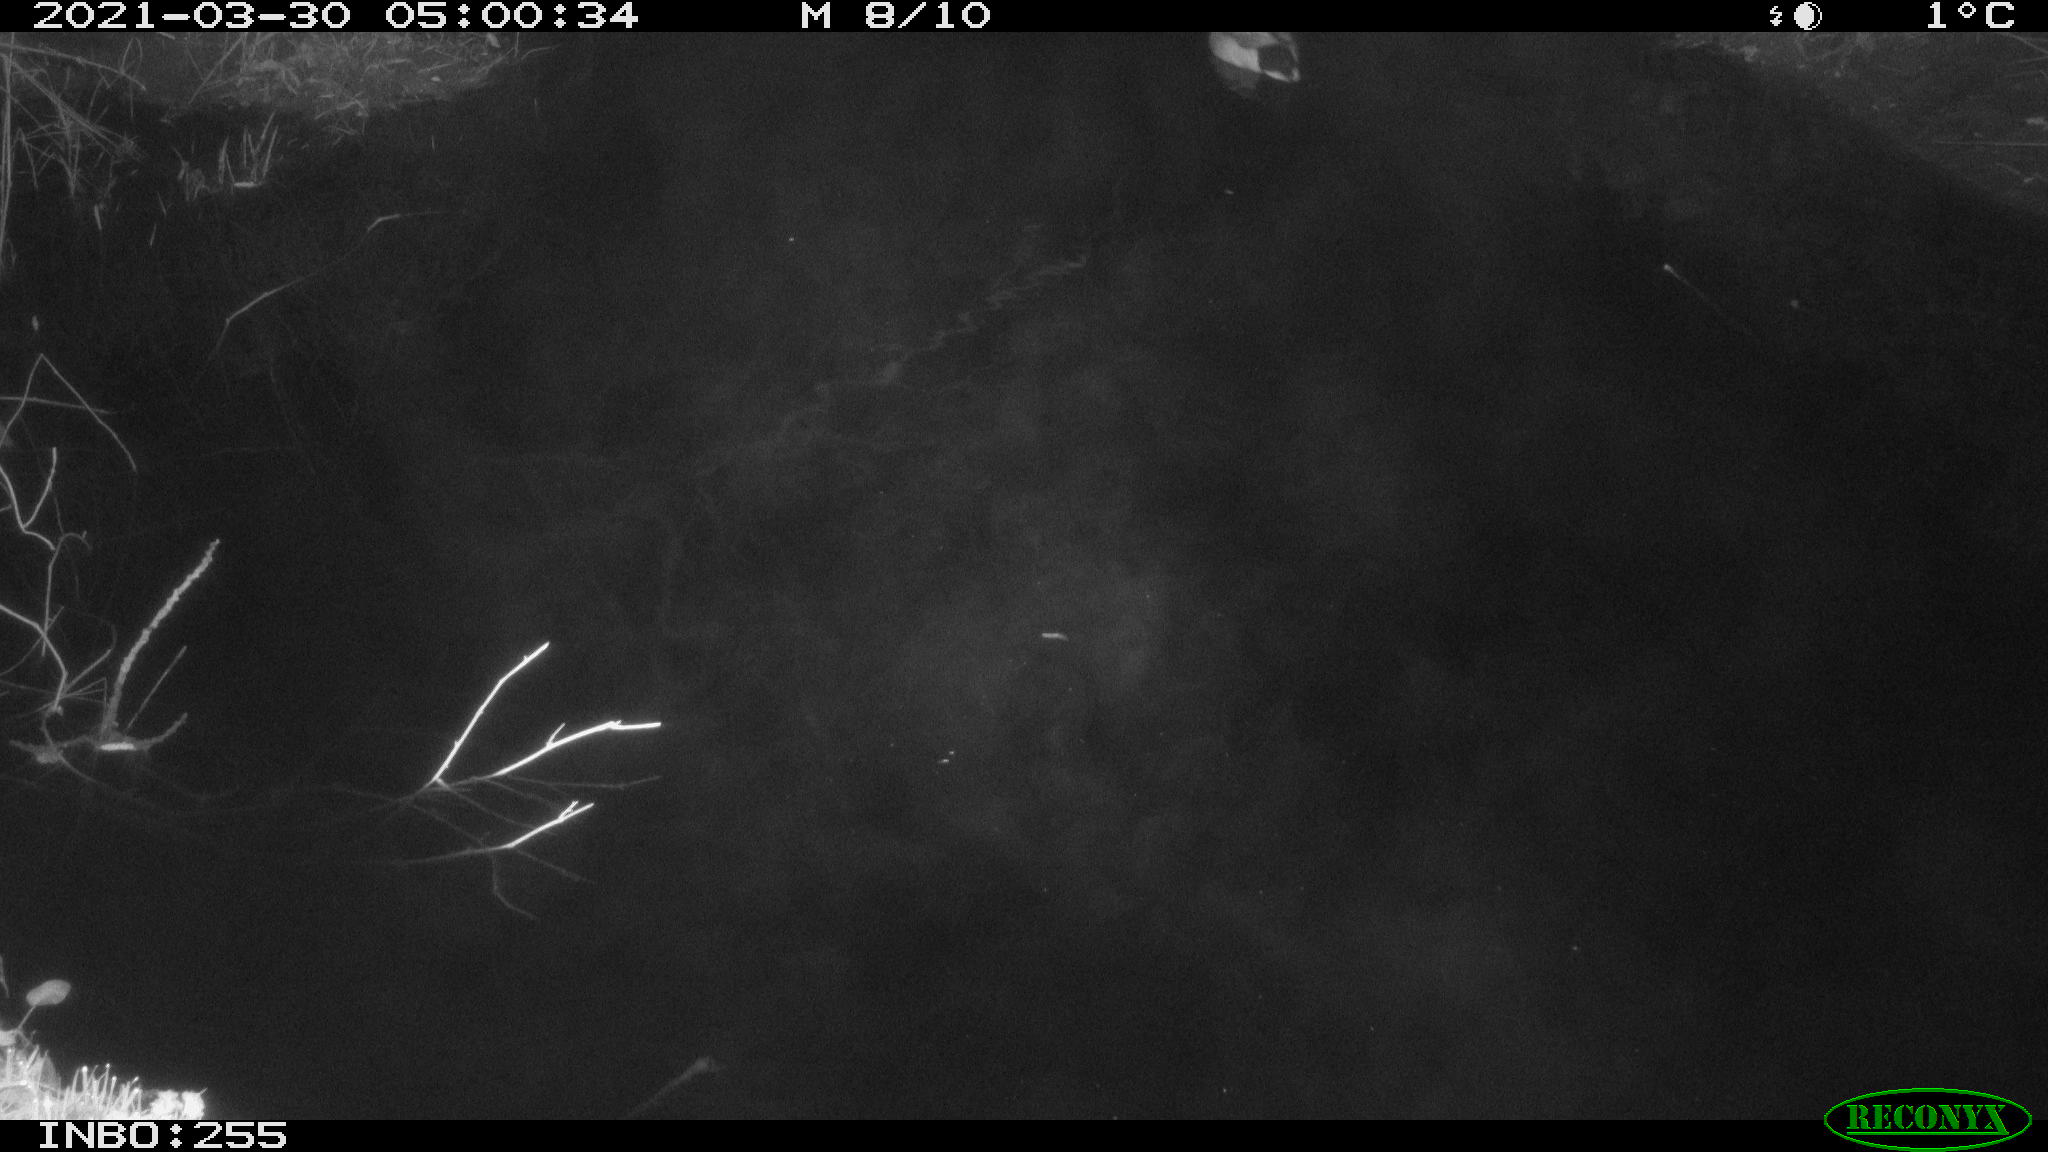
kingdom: Animalia
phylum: Chordata
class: Aves
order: Anseriformes
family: Anatidae
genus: Anas
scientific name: Anas platyrhynchos
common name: Mallard
